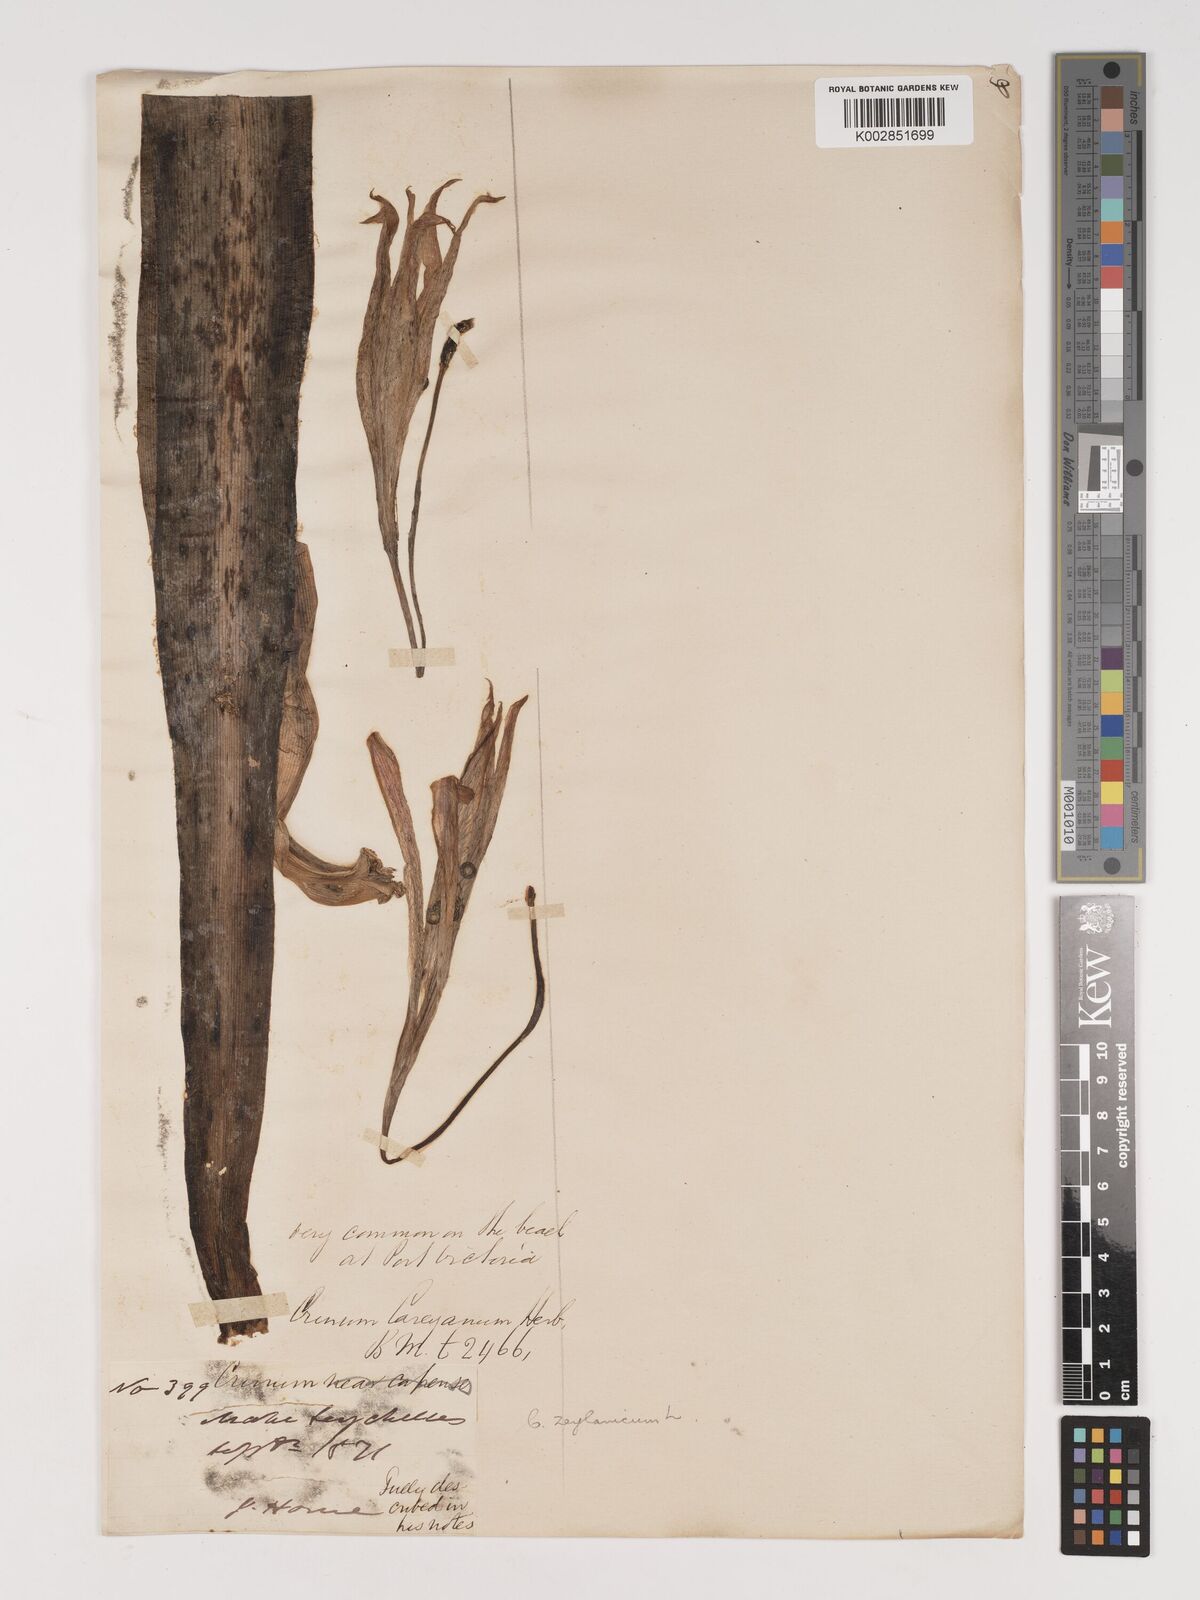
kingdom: Plantae
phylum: Tracheophyta
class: Liliopsida
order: Asparagales
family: Amaryllidaceae
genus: Crinum
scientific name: Crinum latifolium
